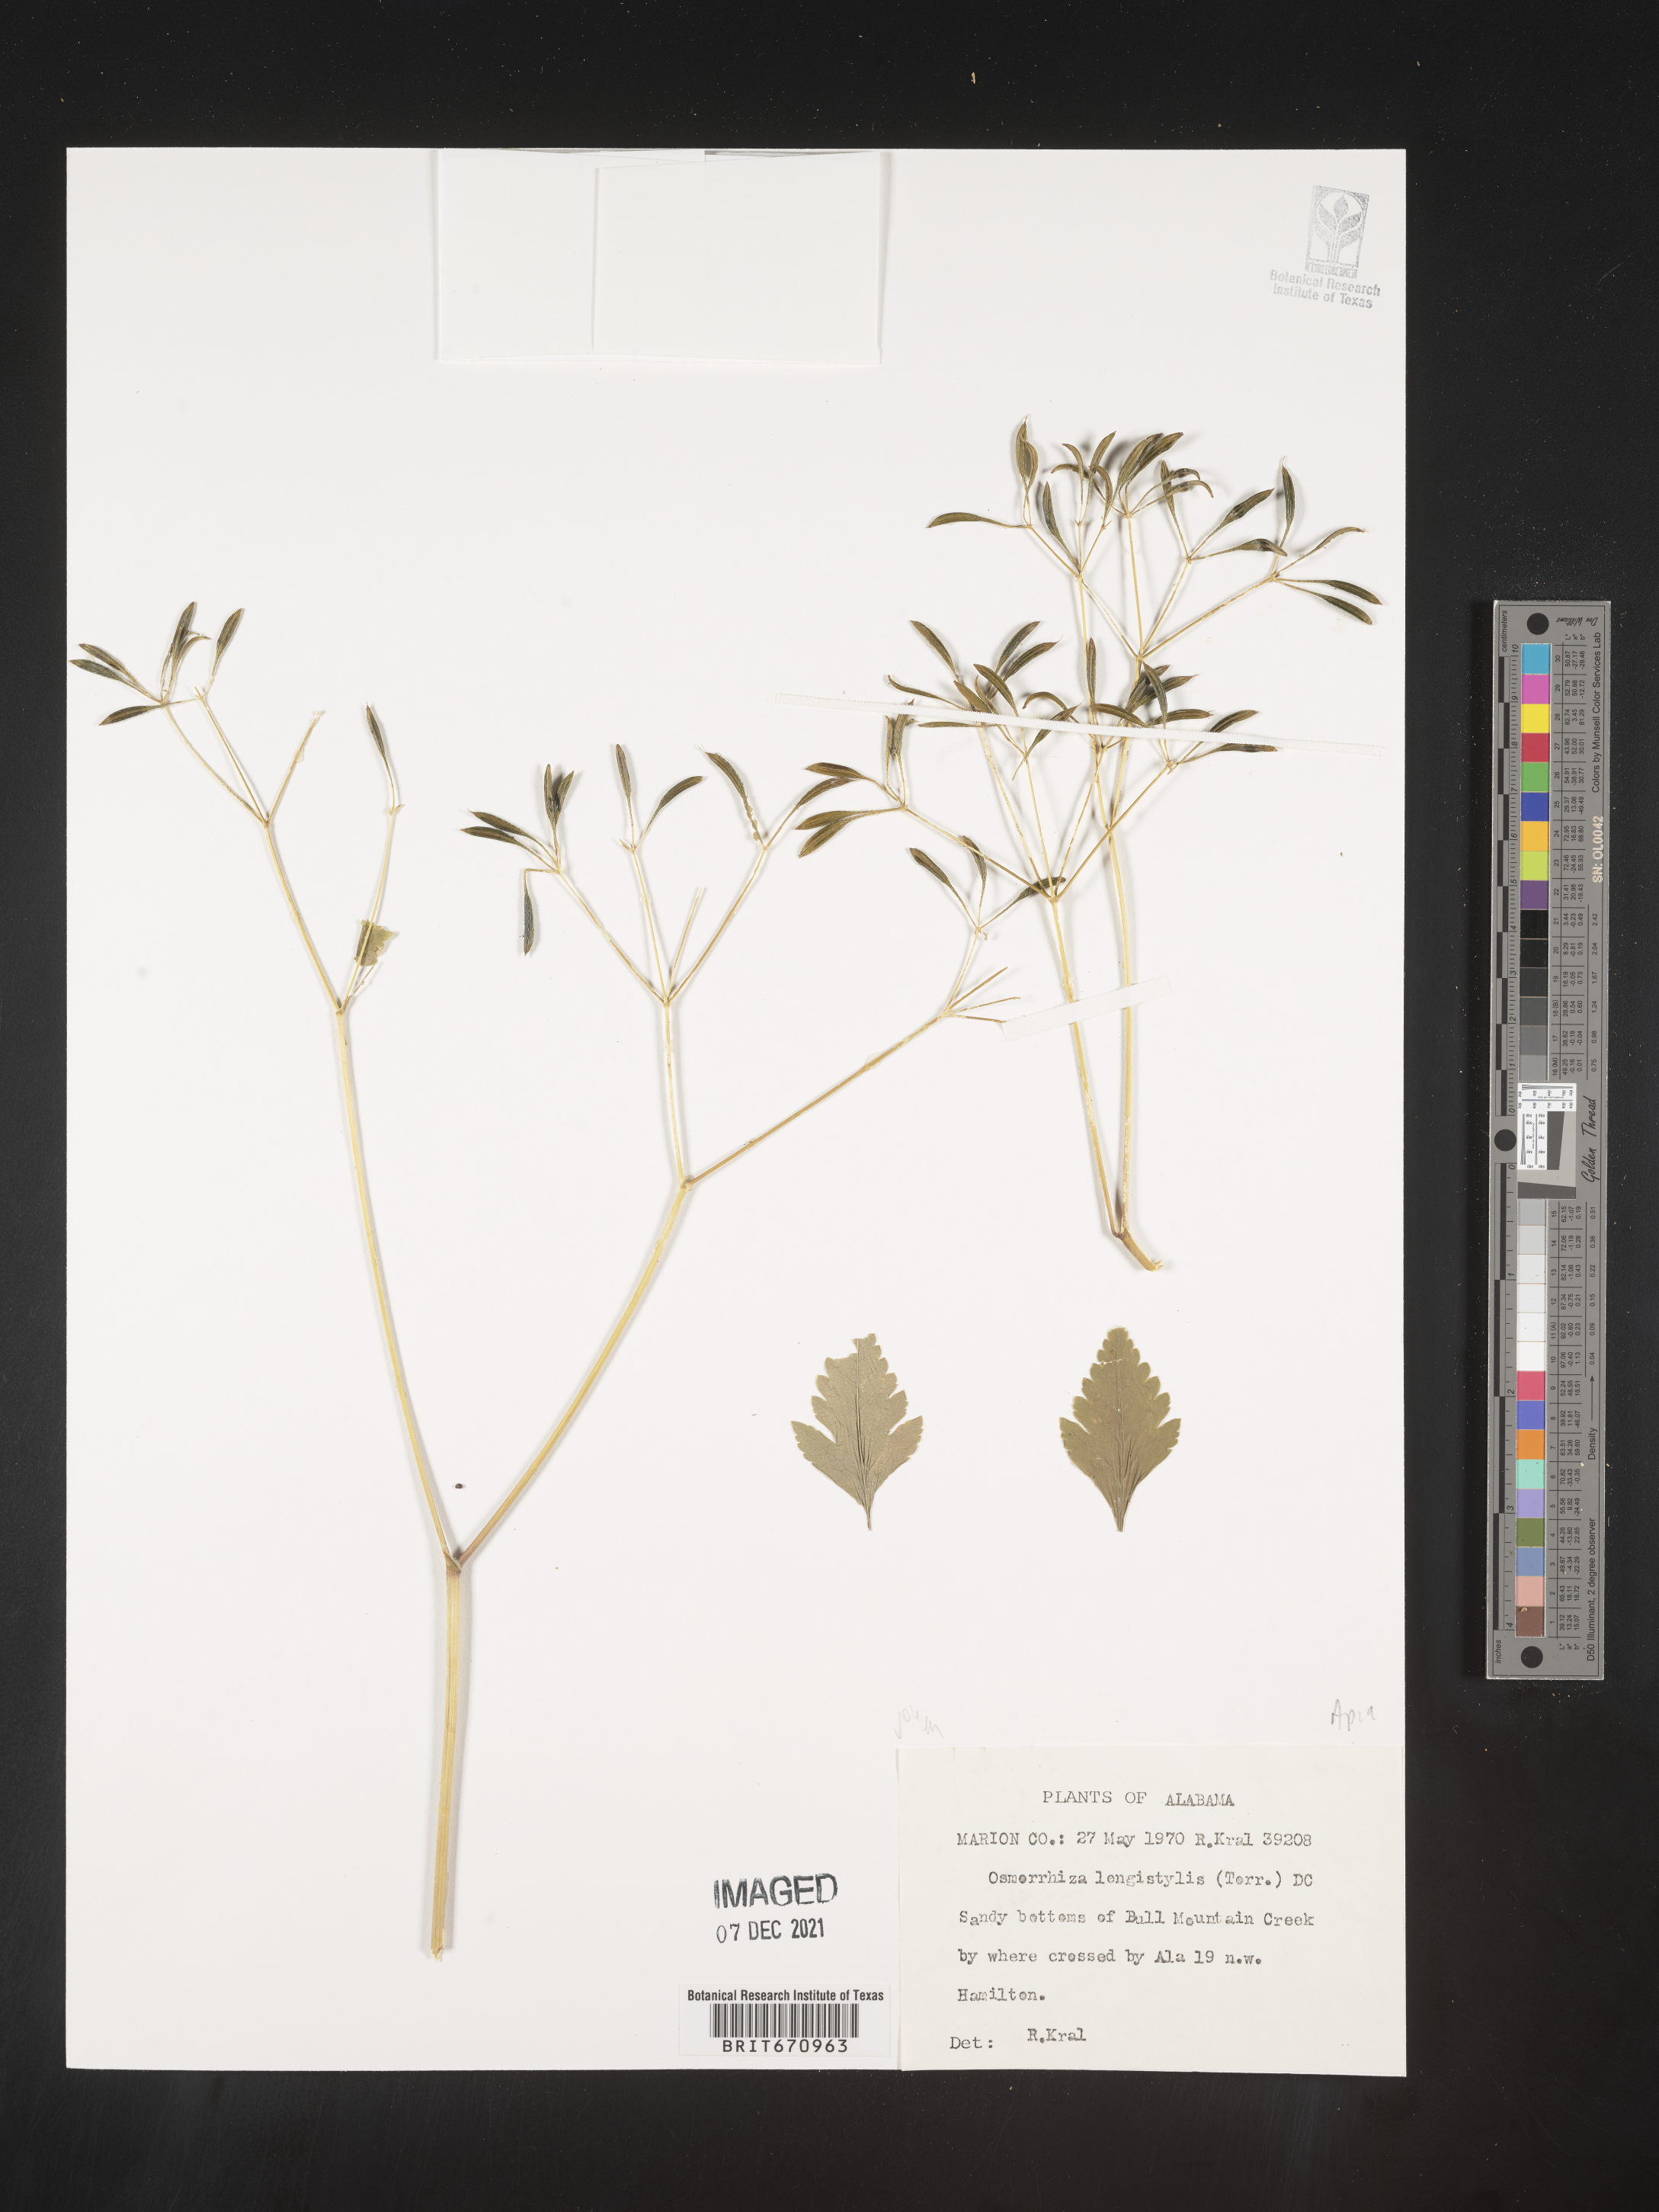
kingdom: Plantae
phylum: Tracheophyta
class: Magnoliopsida
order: Apiales
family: Apiaceae
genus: Osmorhiza
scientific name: Osmorhiza longistylis
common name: Smooth sweet cicely
